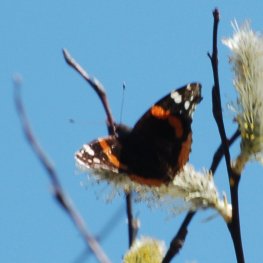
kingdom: Animalia
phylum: Arthropoda
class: Insecta
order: Lepidoptera
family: Nymphalidae
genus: Vanessa
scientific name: Vanessa atalanta
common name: Red Admiral
